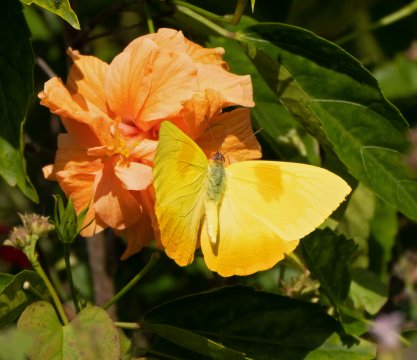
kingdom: Animalia
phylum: Arthropoda
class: Insecta
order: Lepidoptera
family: Pieridae
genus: Phoebis
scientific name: Phoebis philea
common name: Orange-barred Sulphur
